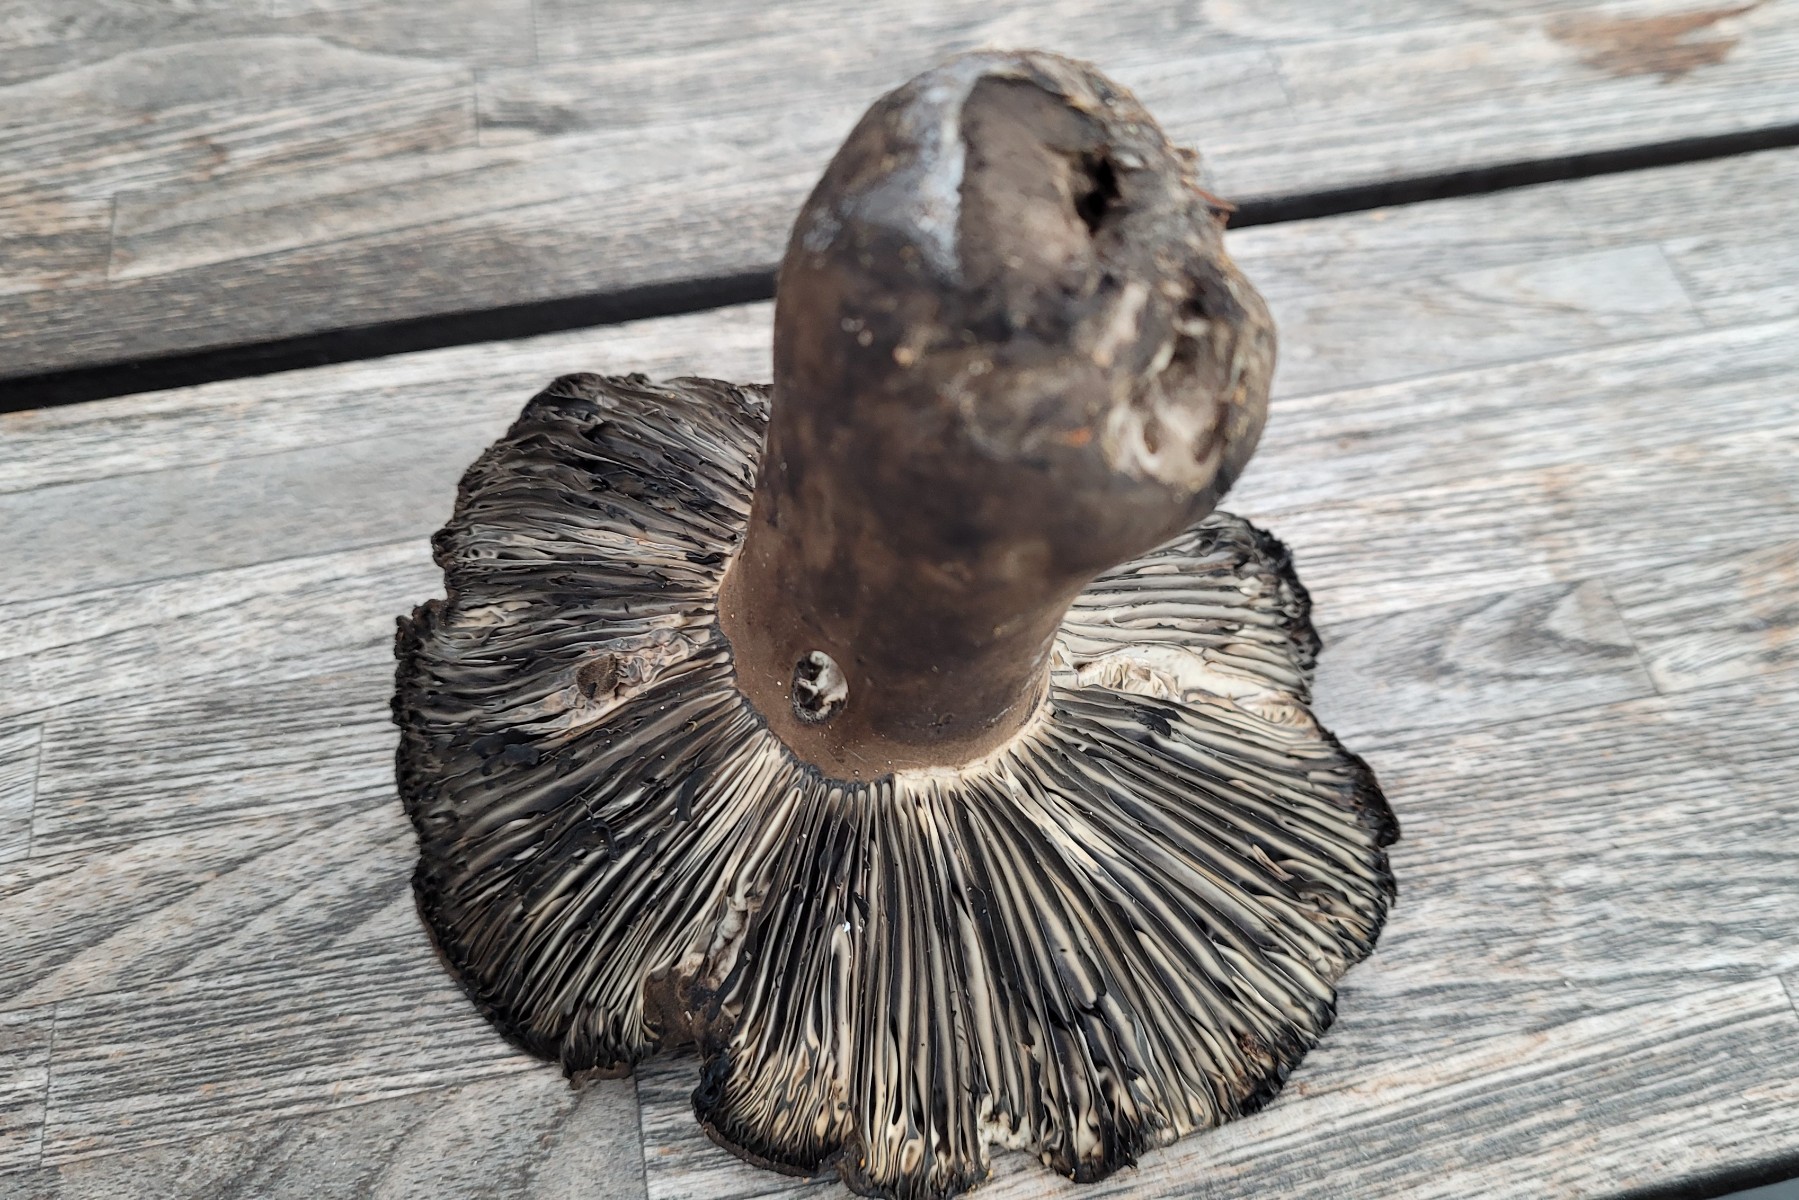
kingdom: Fungi
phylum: Basidiomycota
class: Agaricomycetes
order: Russulales
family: Russulaceae
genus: Russula
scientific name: Russula albonigra
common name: sorthvid skørhat
